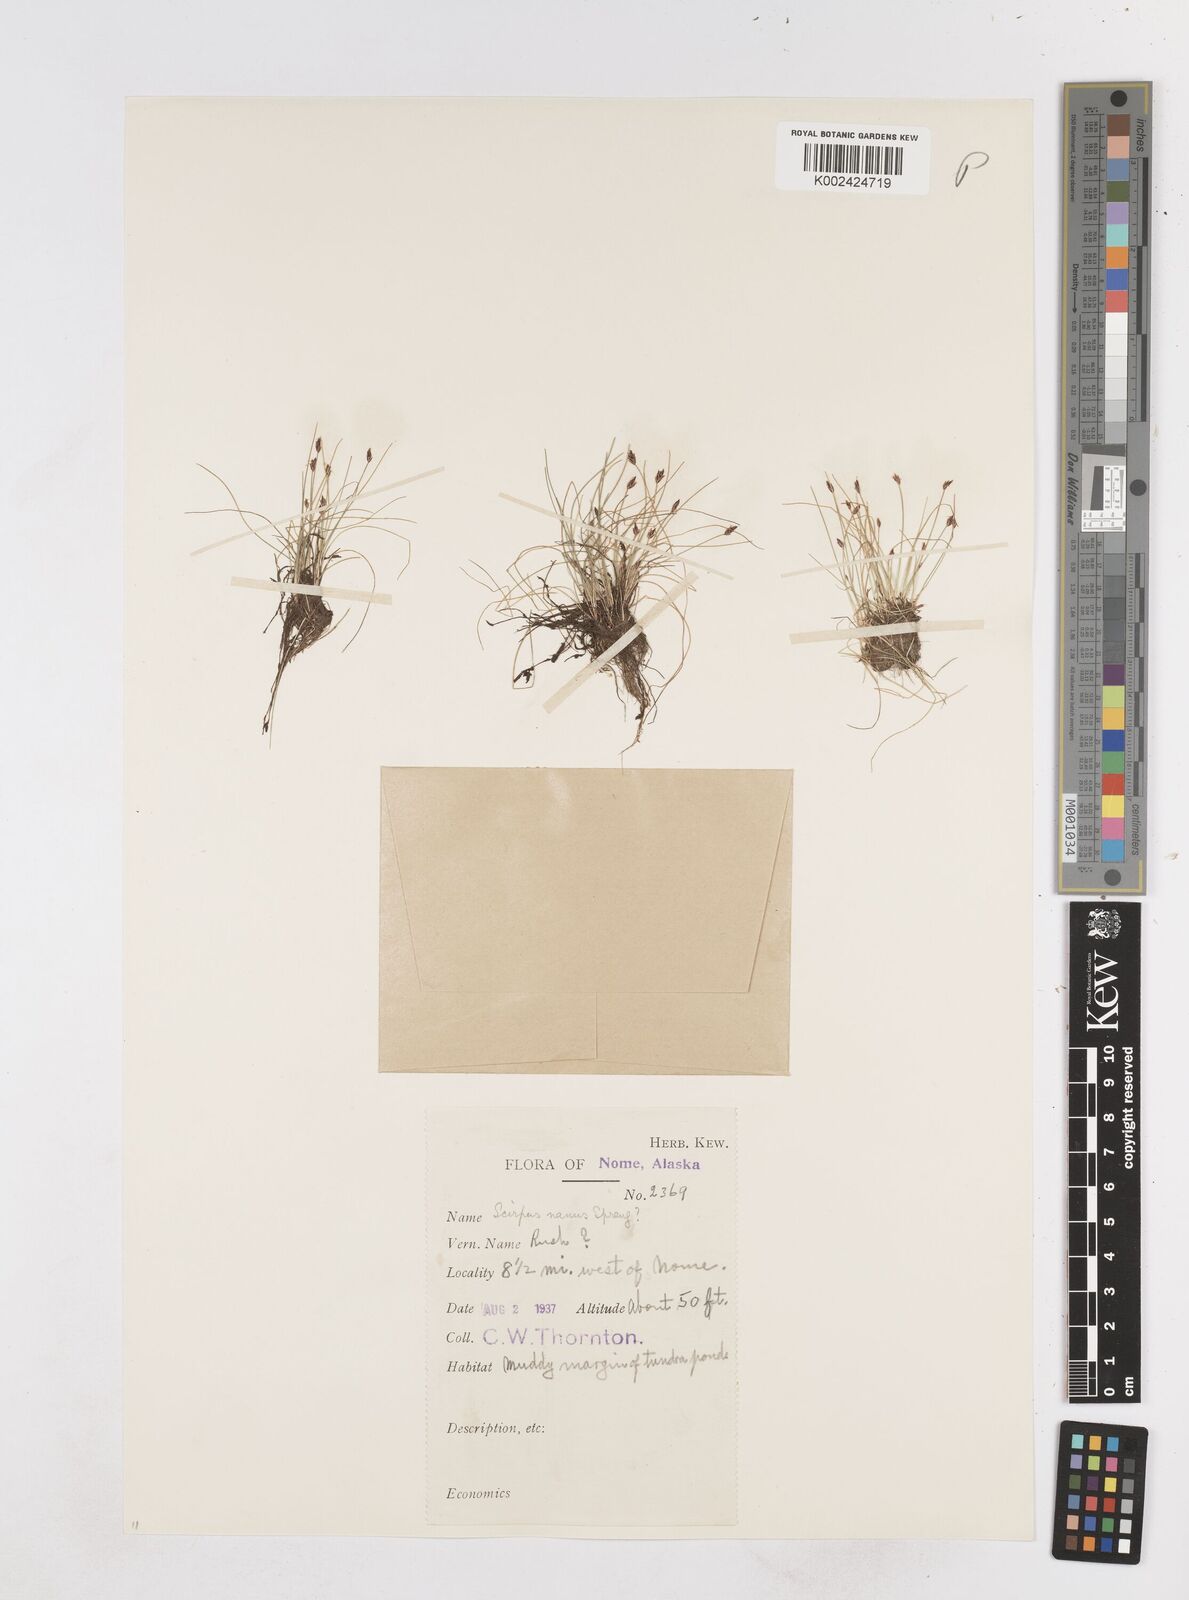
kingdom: Plantae
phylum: Tracheophyta
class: Liliopsida
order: Poales
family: Cyperaceae
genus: Eleocharis
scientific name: Eleocharis parvula
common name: Dwarf spike-rush
